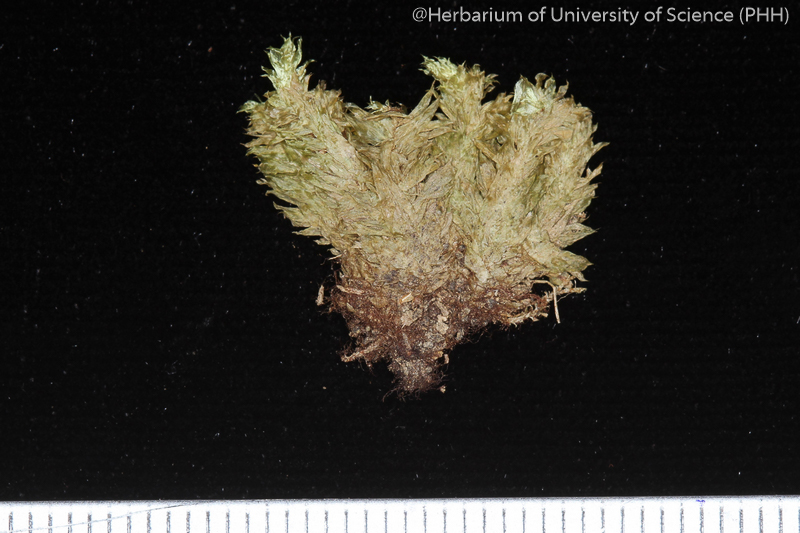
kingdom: Plantae
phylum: Bryophyta
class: Bryopsida
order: Ptychomniales
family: Ptychomniaceae
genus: Garovaglia
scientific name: Garovaglia crispata
